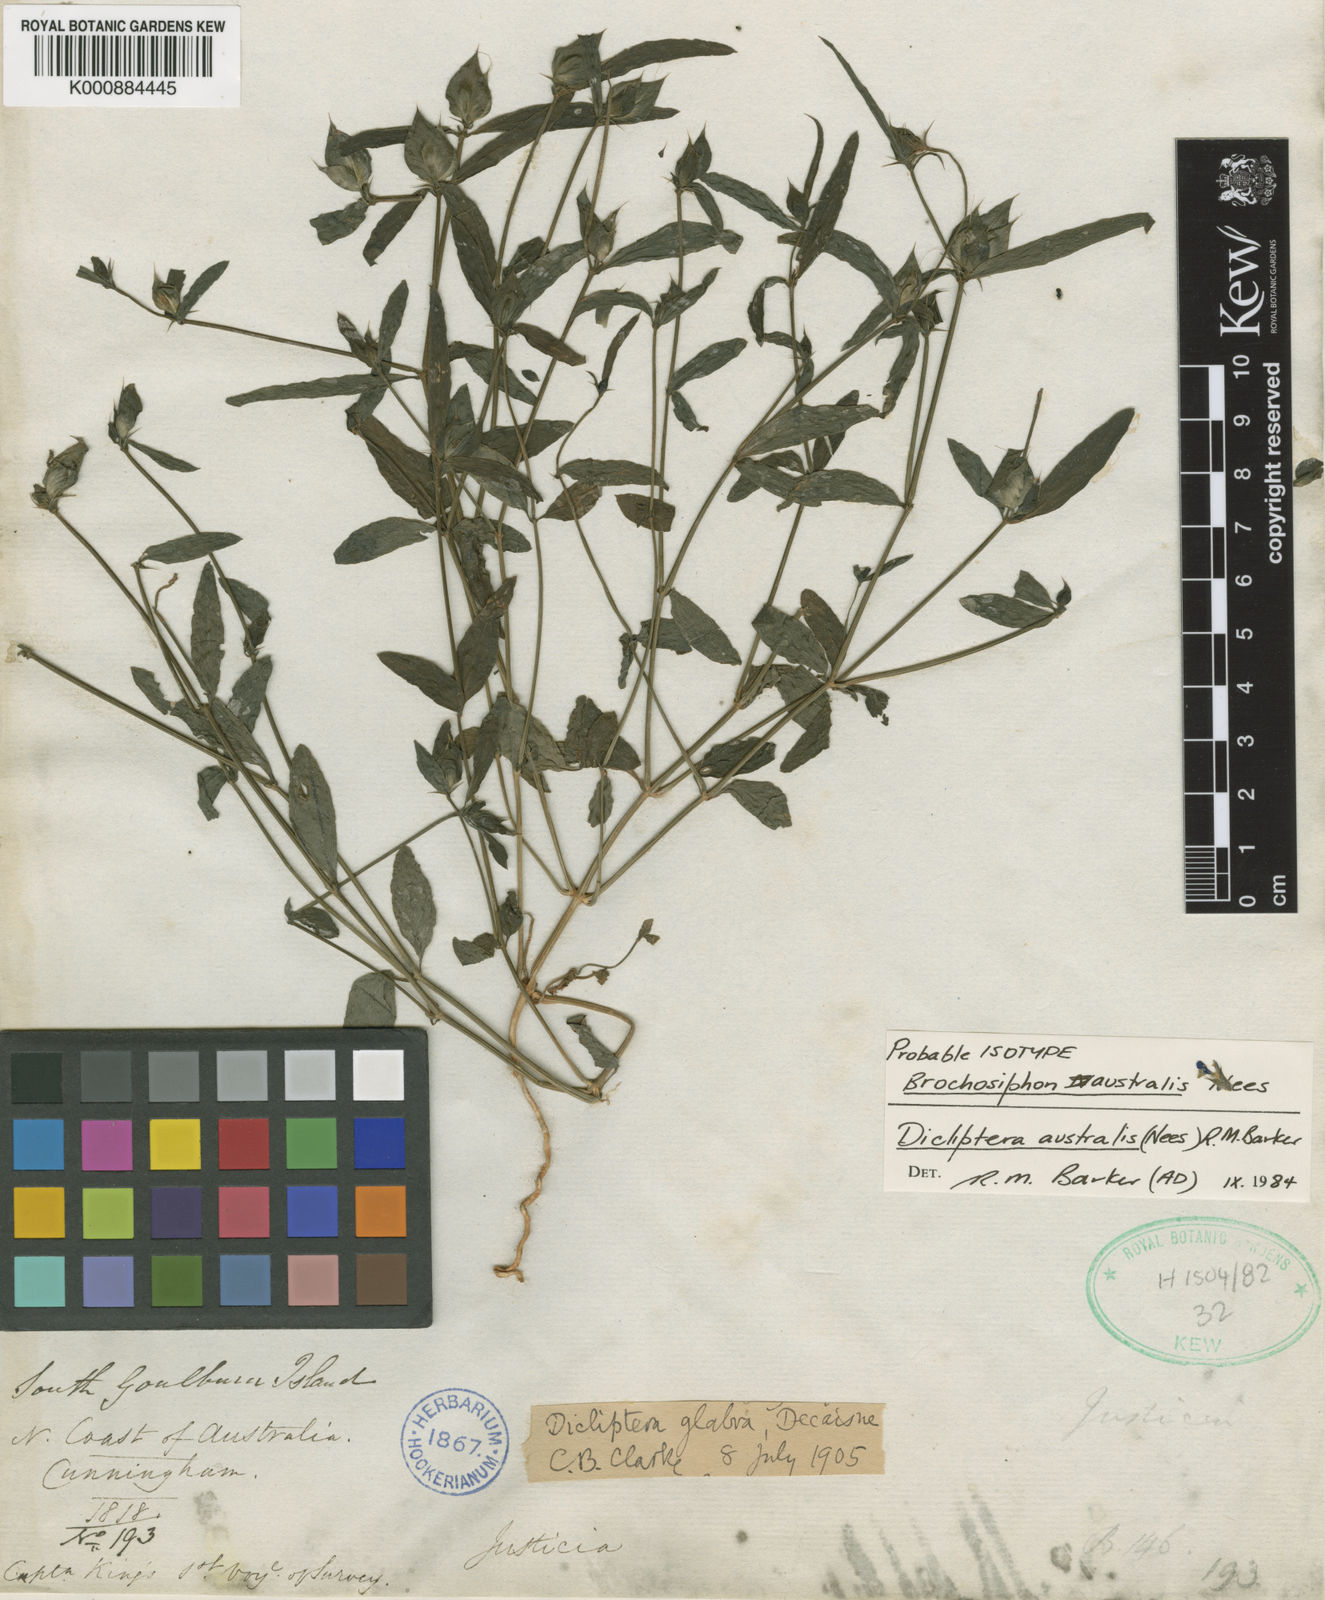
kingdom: Plantae
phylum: Tracheophyta
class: Magnoliopsida
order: Lamiales
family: Acanthaceae
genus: Dicliptera
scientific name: Dicliptera australis
